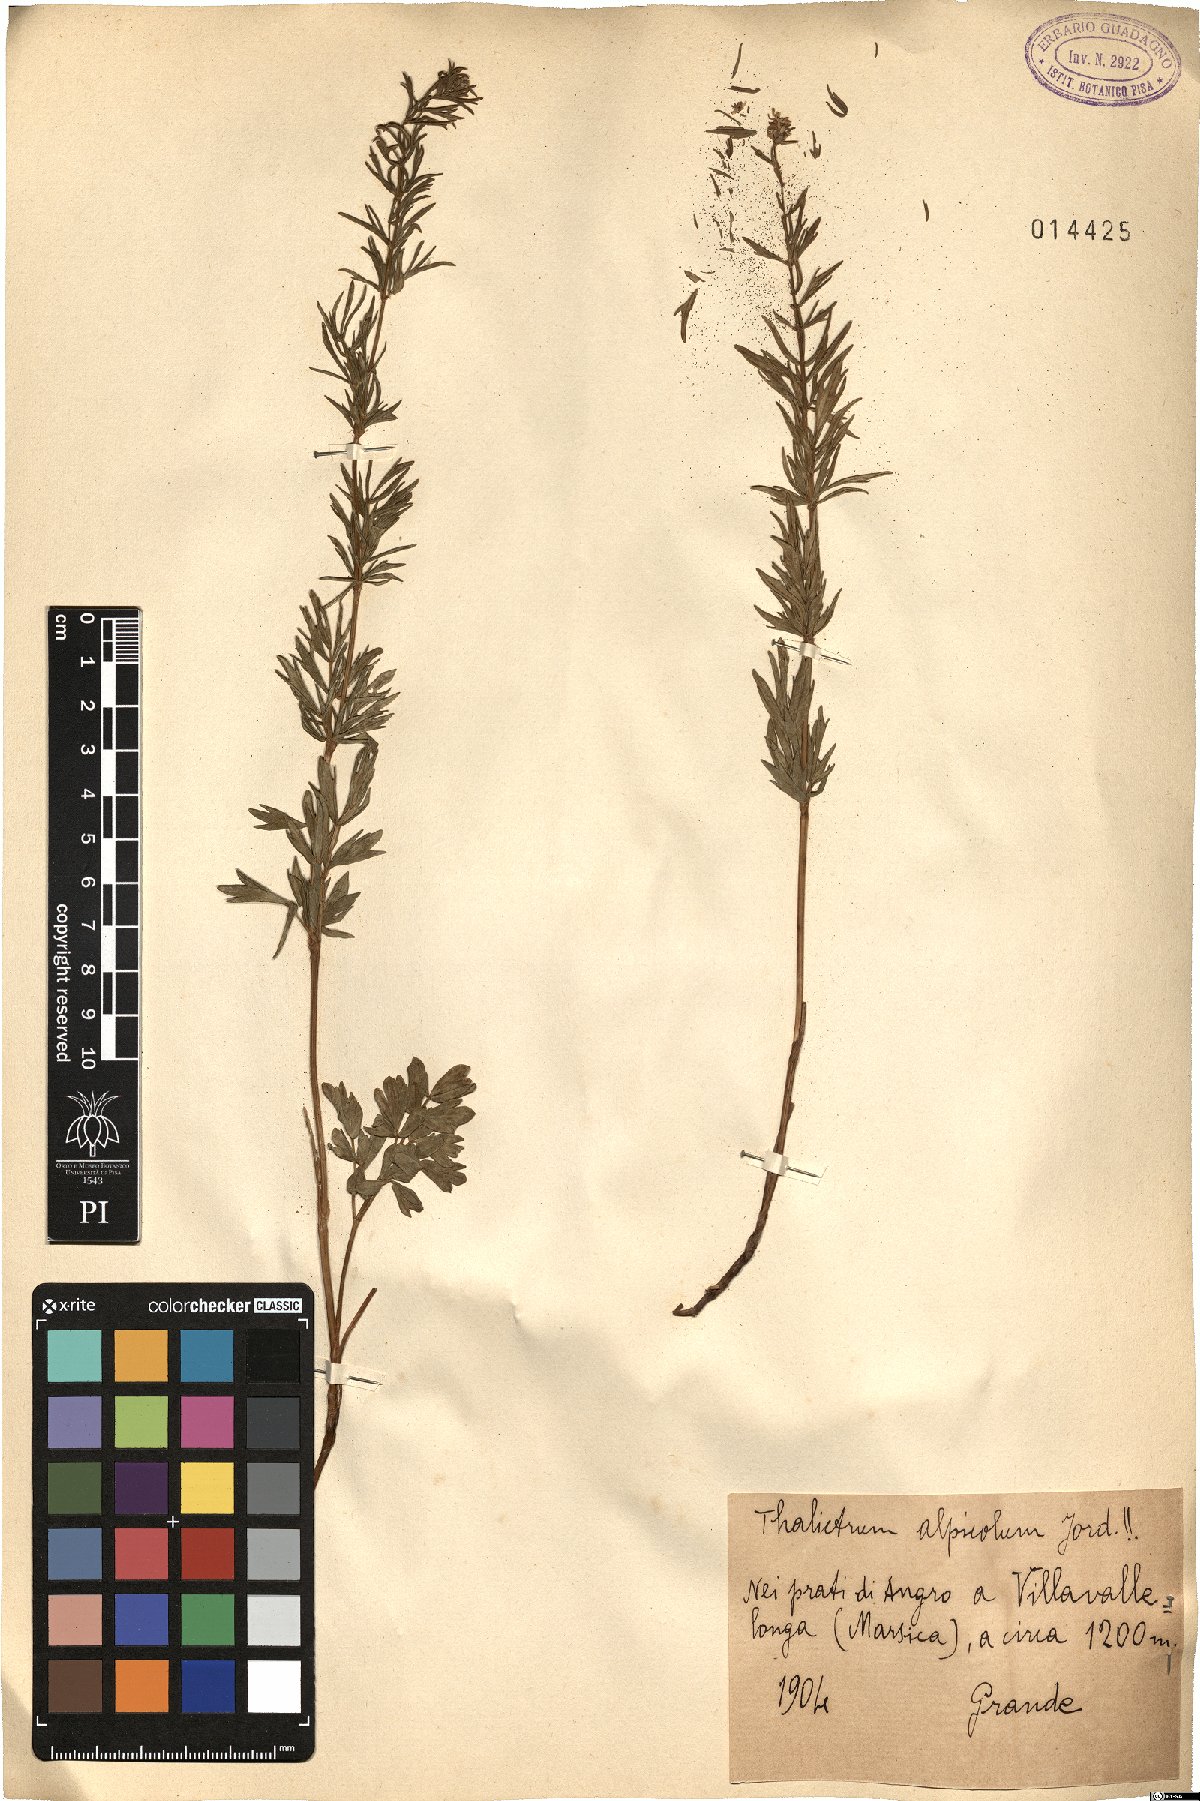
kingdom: Plantae
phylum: Tracheophyta
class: Magnoliopsida
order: Ranunculales
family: Ranunculaceae
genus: Thalictrum
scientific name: Thalictrum simplex
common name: Small meadow-rue
